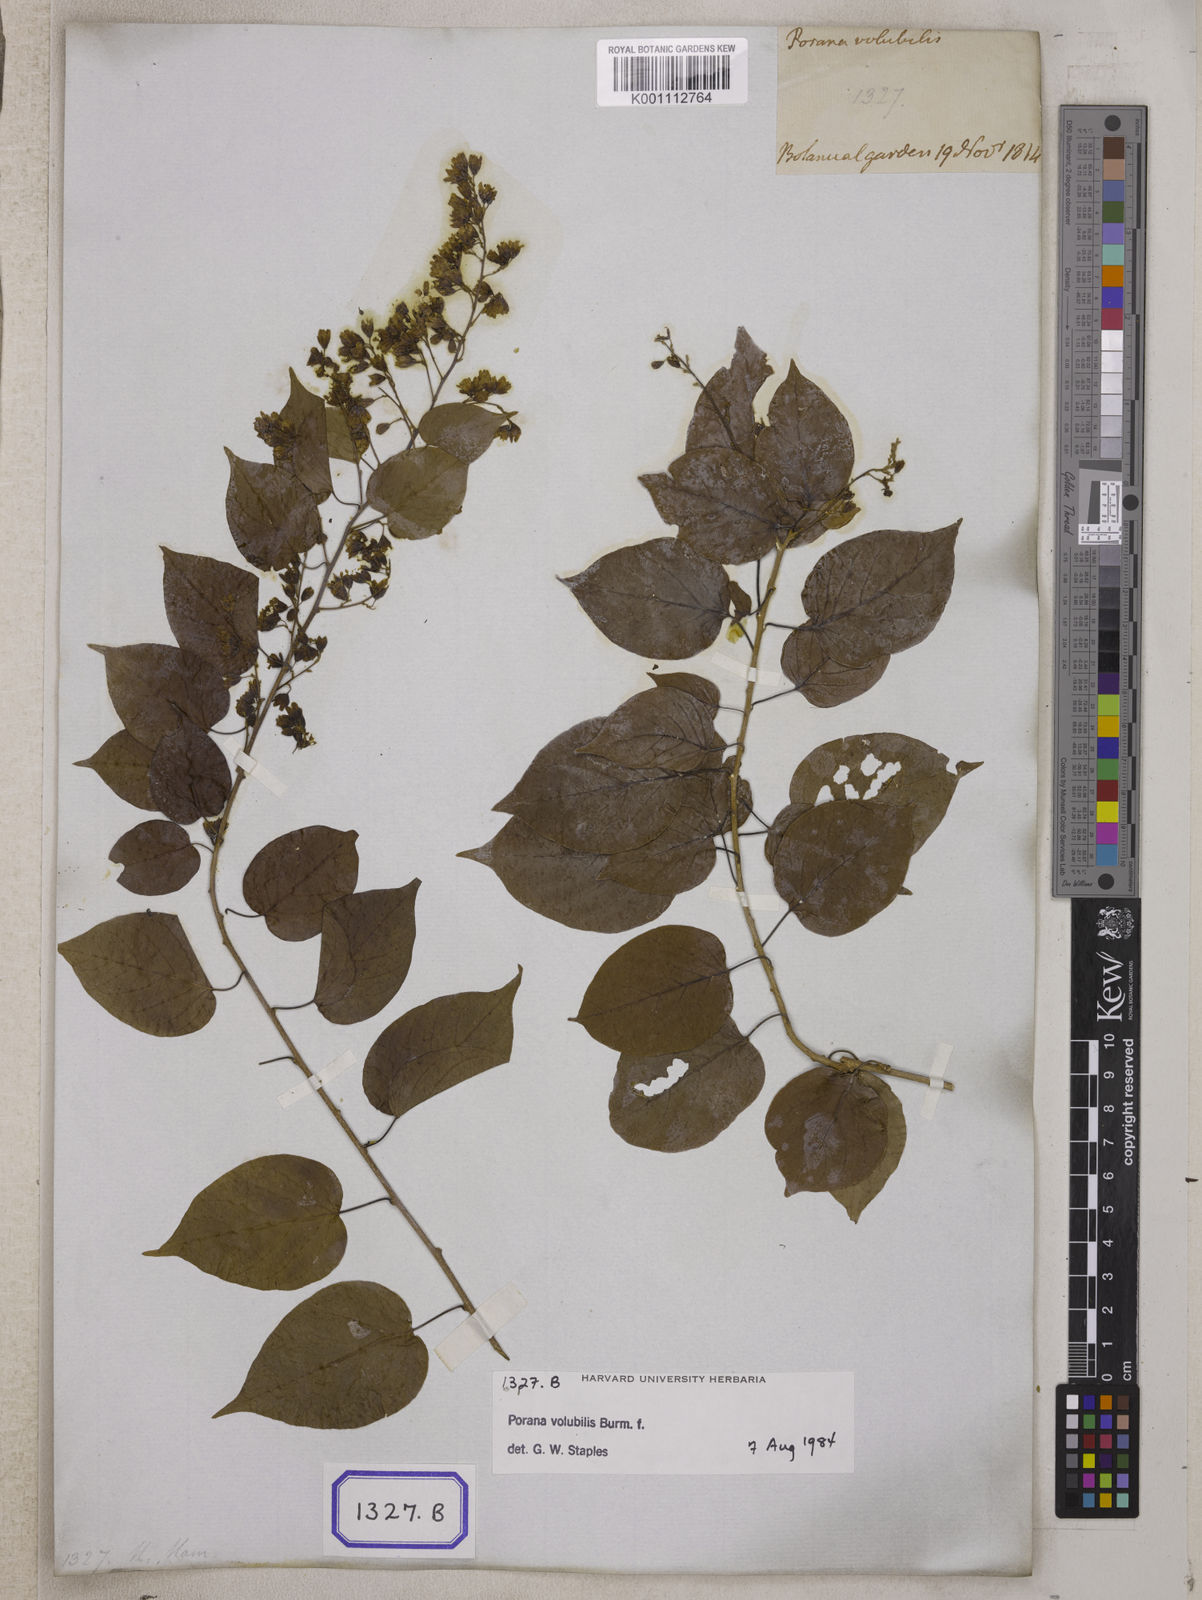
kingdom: Plantae
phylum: Tracheophyta
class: Magnoliopsida
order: Solanales
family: Convolvulaceae
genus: Porana
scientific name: Porana volubilis
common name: Bridal-creeper
